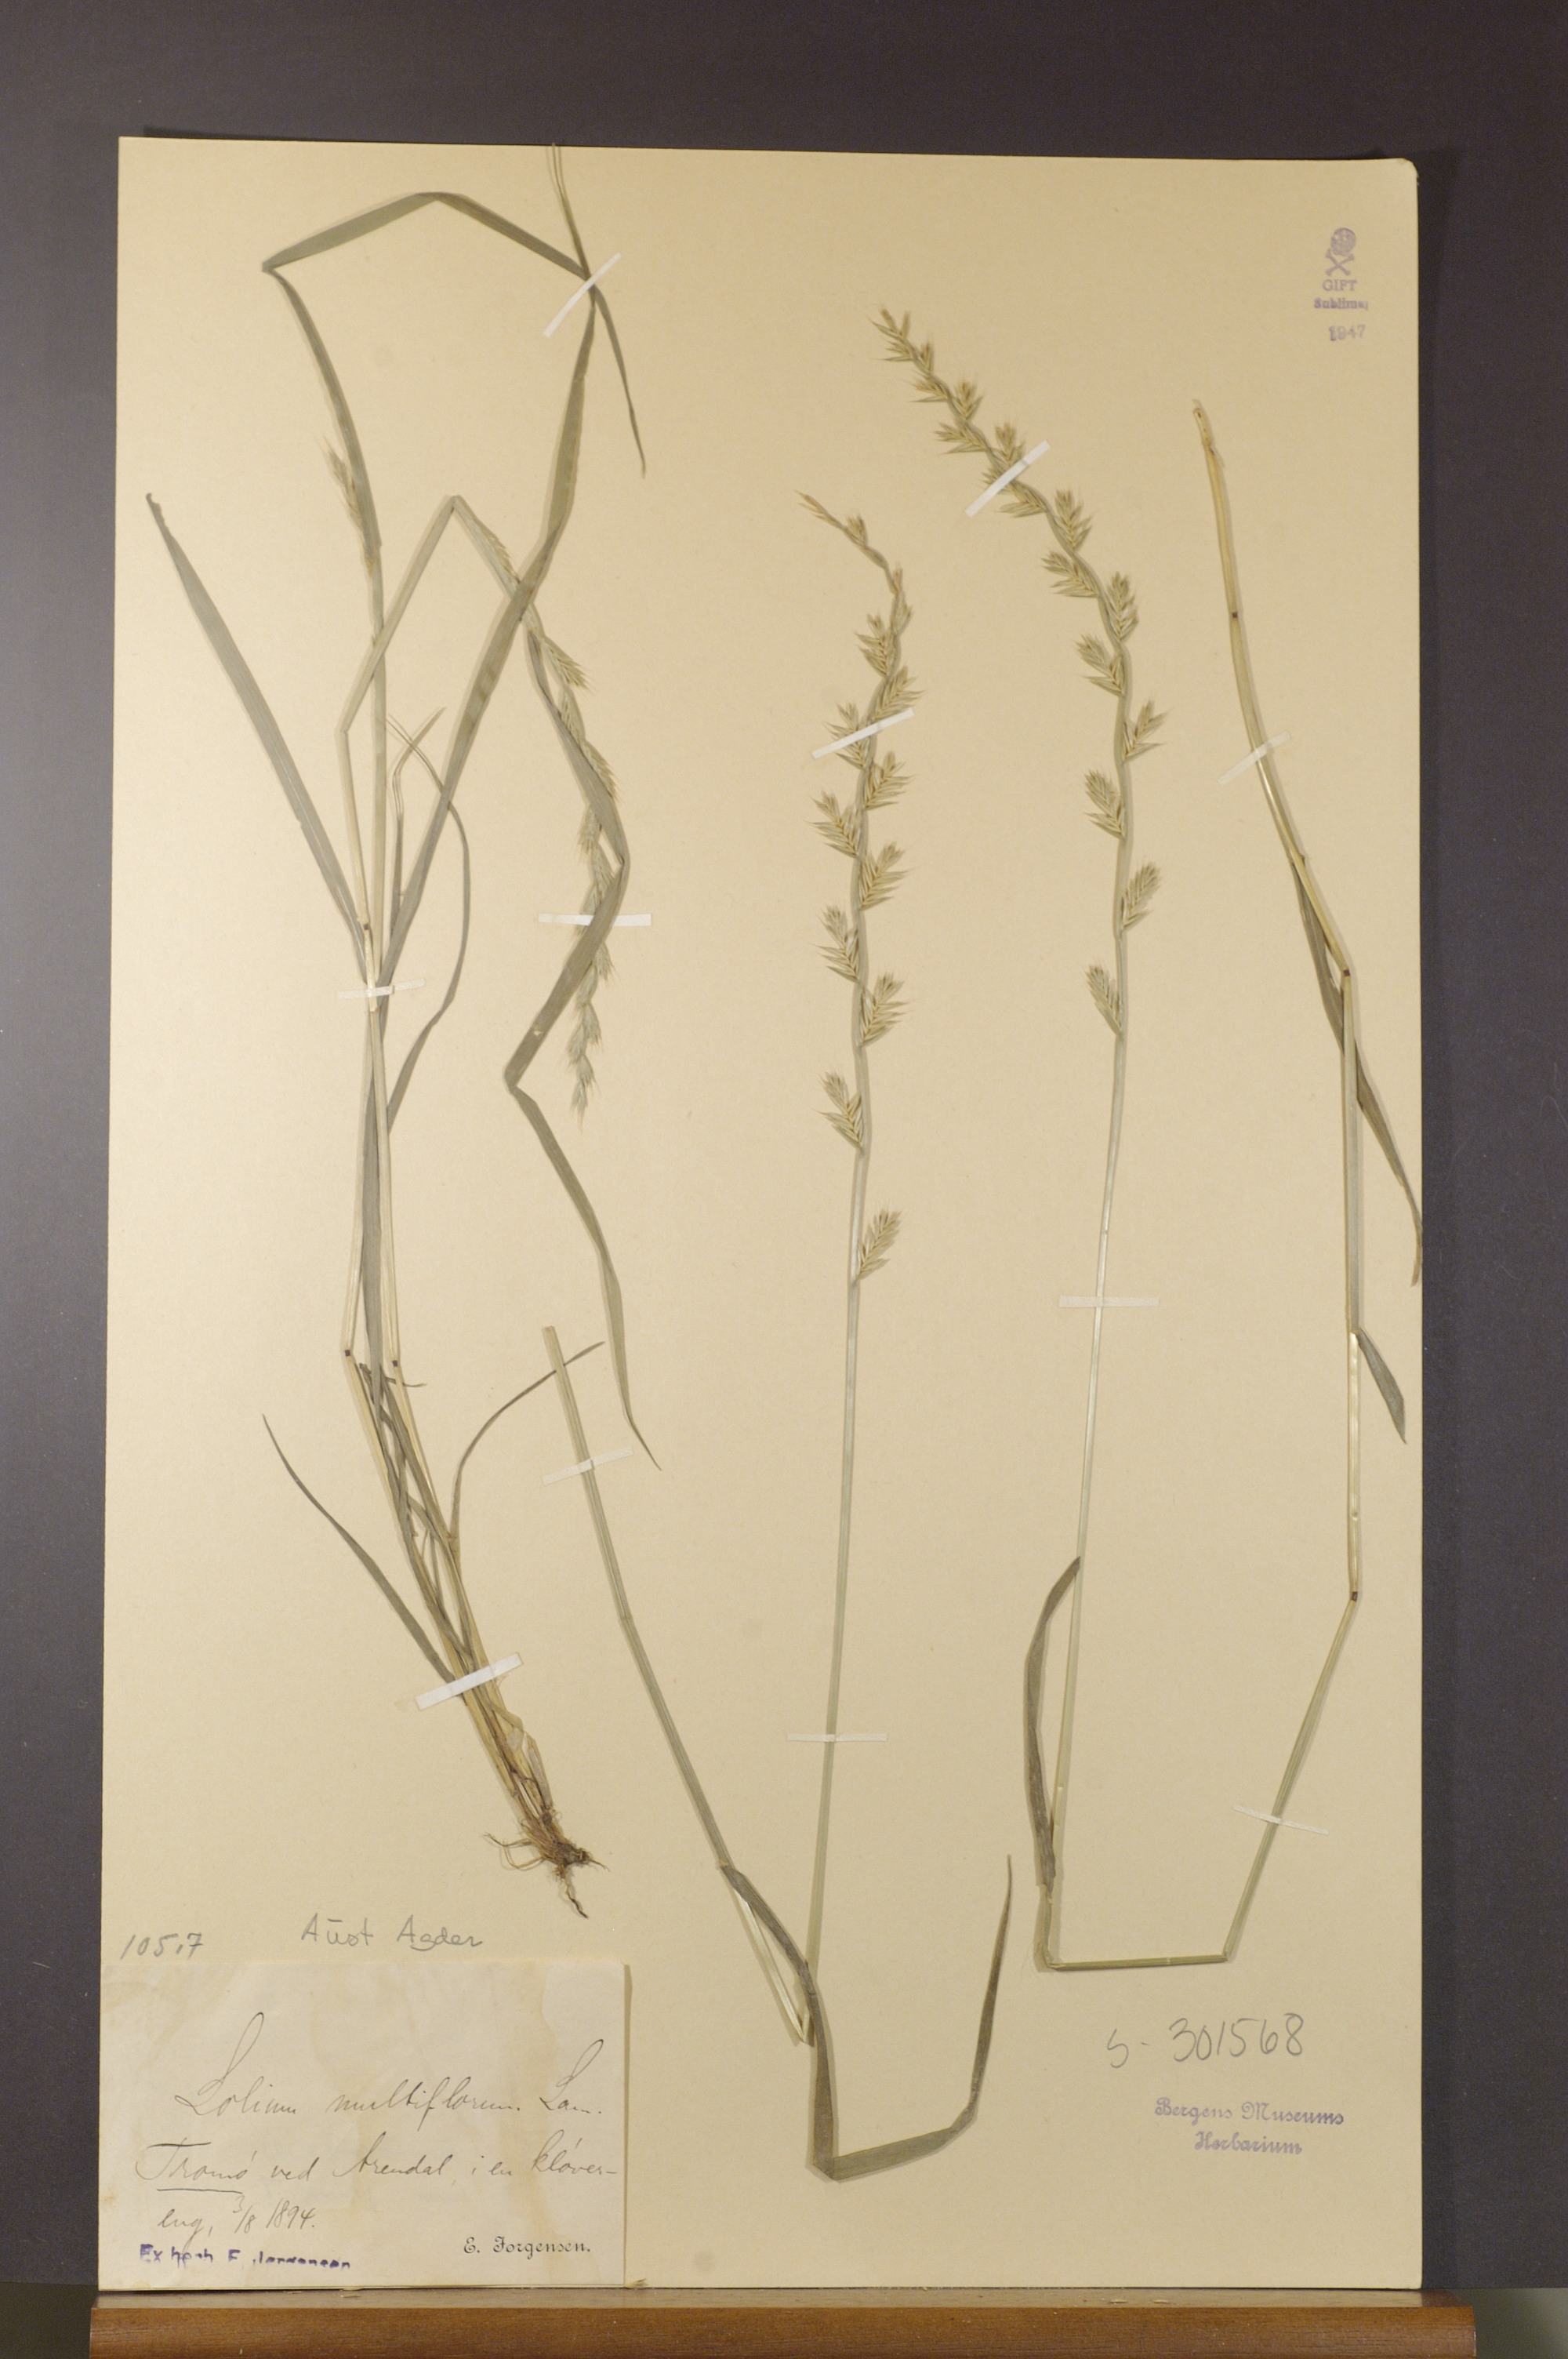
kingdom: Plantae
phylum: Tracheophyta
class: Liliopsida
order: Poales
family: Poaceae
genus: Lolium
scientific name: Lolium multiflorum
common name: Annual ryegrass
